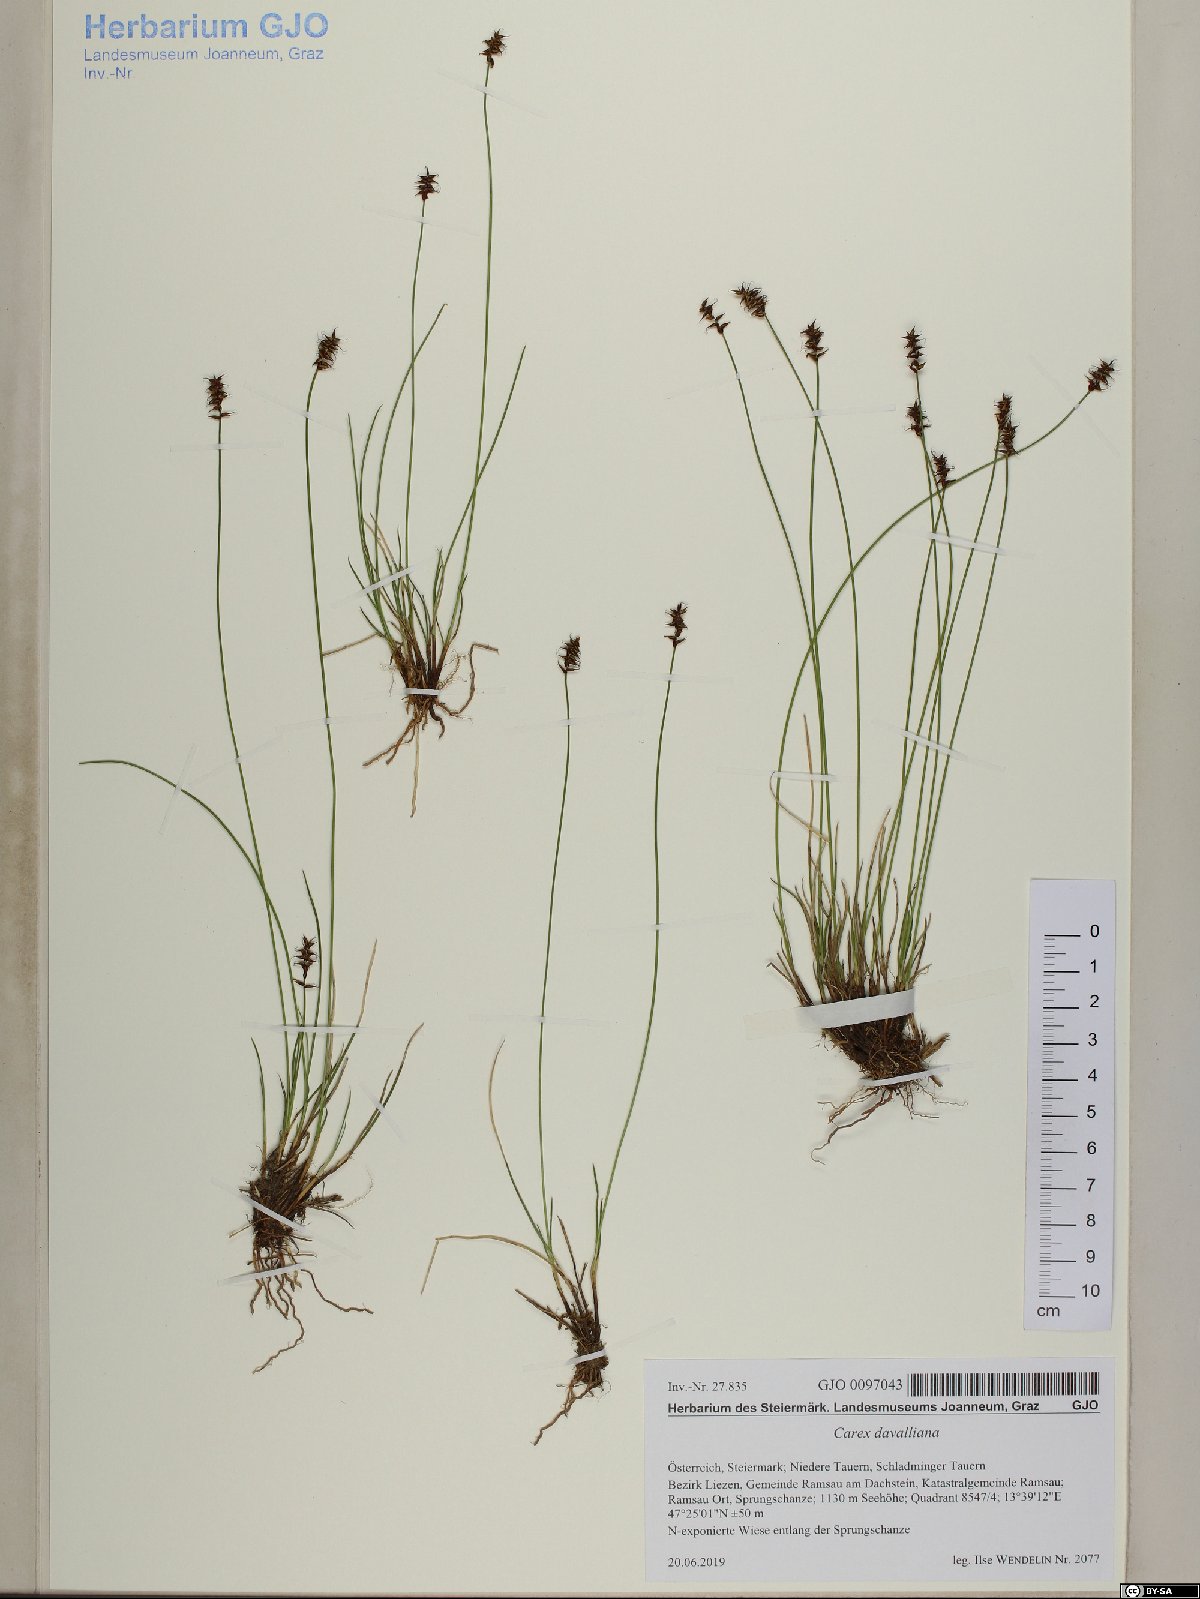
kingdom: Plantae
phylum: Tracheophyta
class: Liliopsida
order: Poales
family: Cyperaceae
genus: Carex
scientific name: Carex davalliana
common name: Davall's sedge
